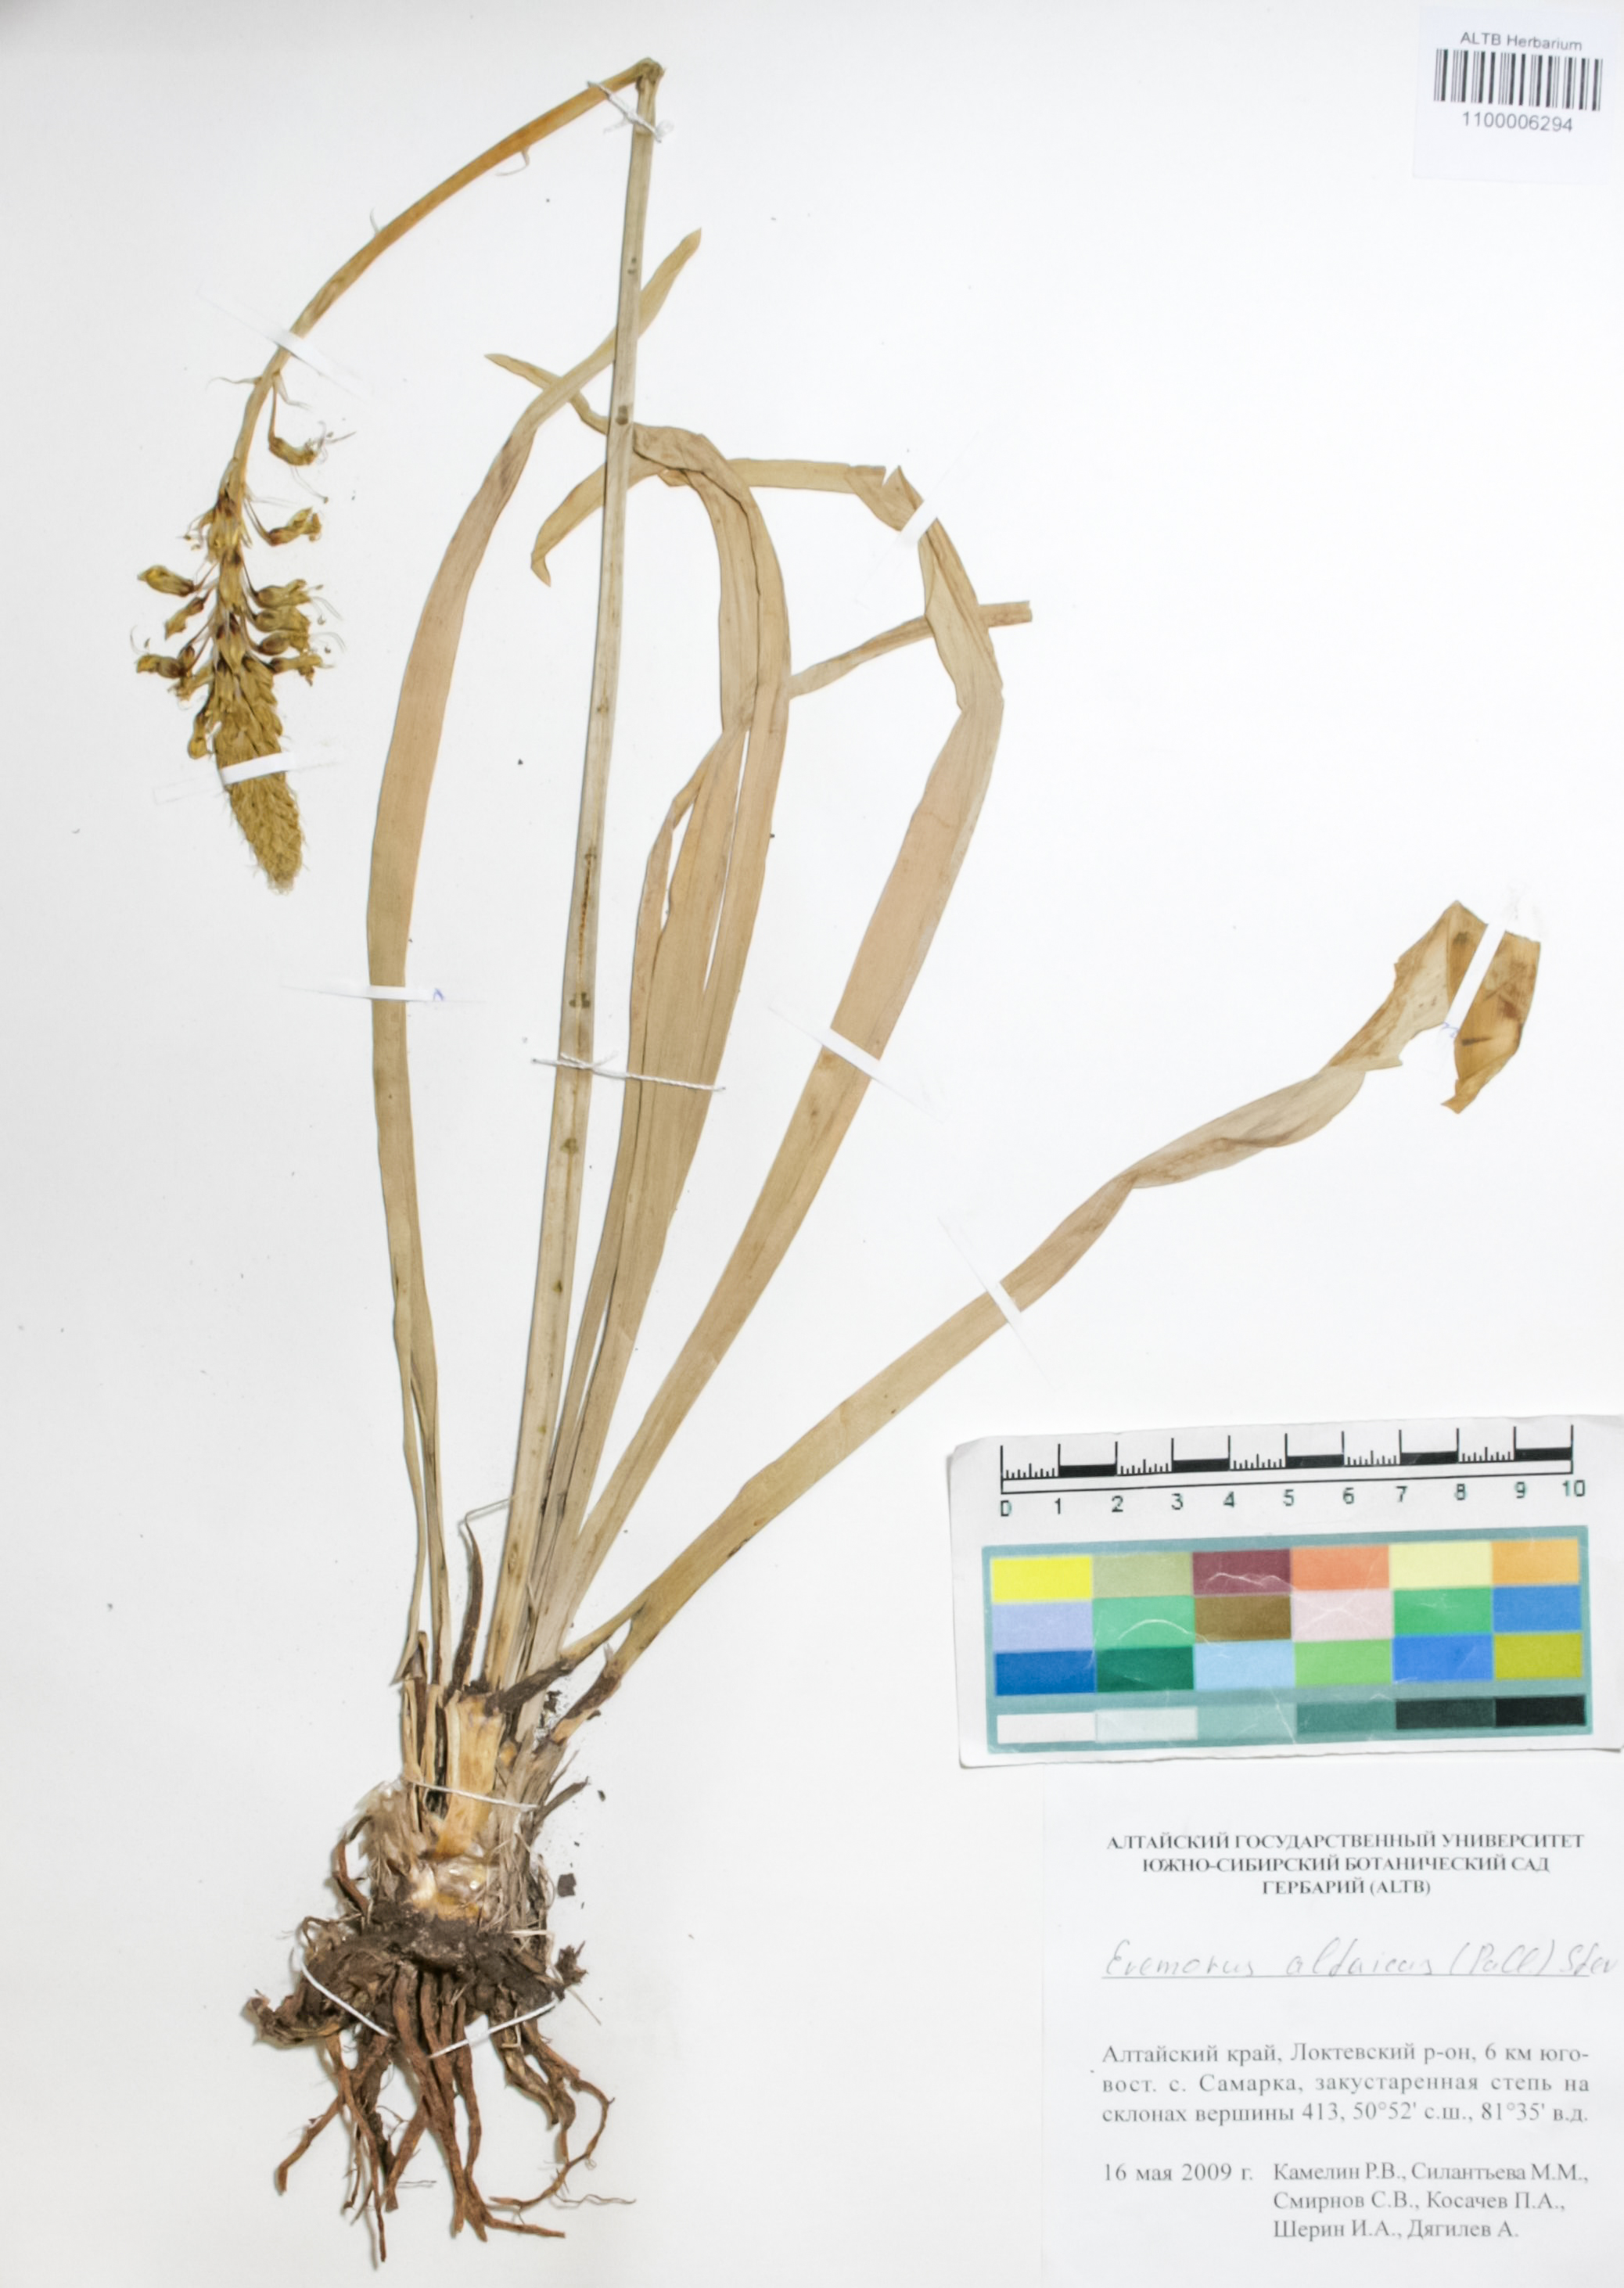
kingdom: Plantae
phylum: Tracheophyta
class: Liliopsida
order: Asparagales
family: Asphodelaceae
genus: Eremurus
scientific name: Eremurus altaicus
